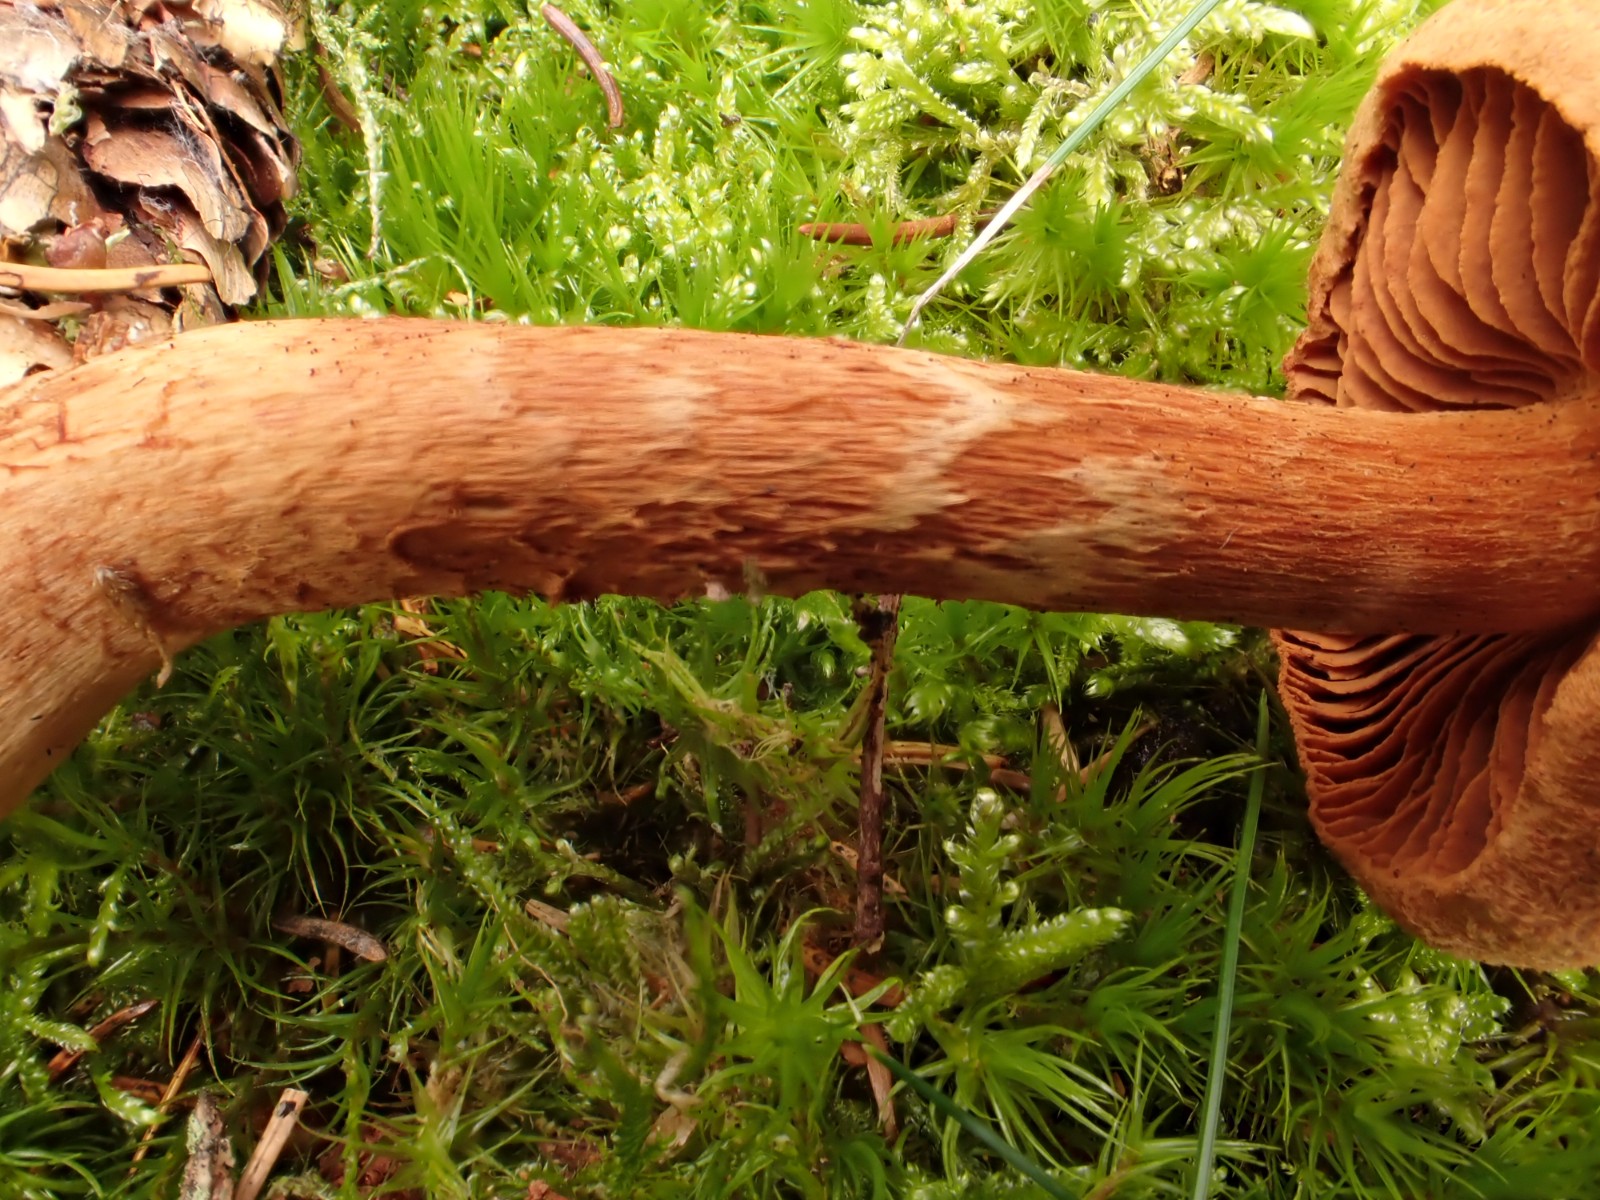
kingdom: Fungi
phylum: Basidiomycota
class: Agaricomycetes
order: Agaricales
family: Cortinariaceae
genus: Cortinarius
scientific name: Cortinarius rubellus
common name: puklet gift-slørhat
